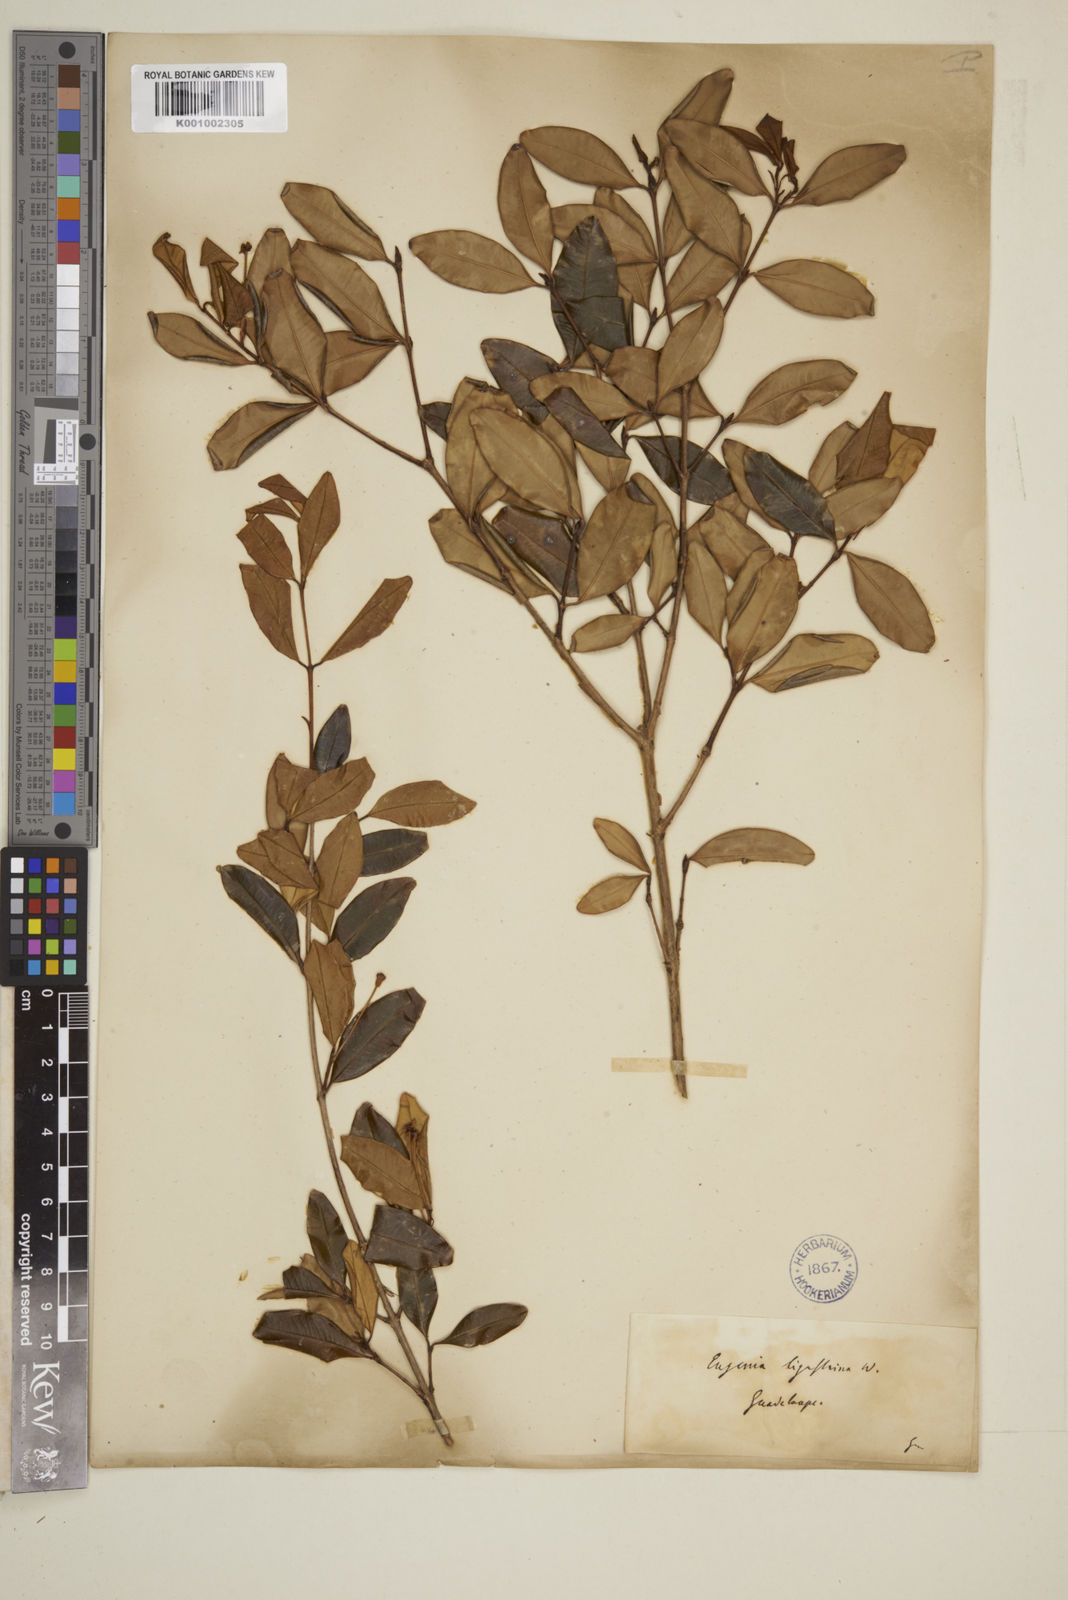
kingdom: Plantae
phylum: Tracheophyta
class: Magnoliopsida
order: Myrtales
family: Myrtaceae
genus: Eugenia
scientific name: Eugenia ligustrina
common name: Privet stopper
